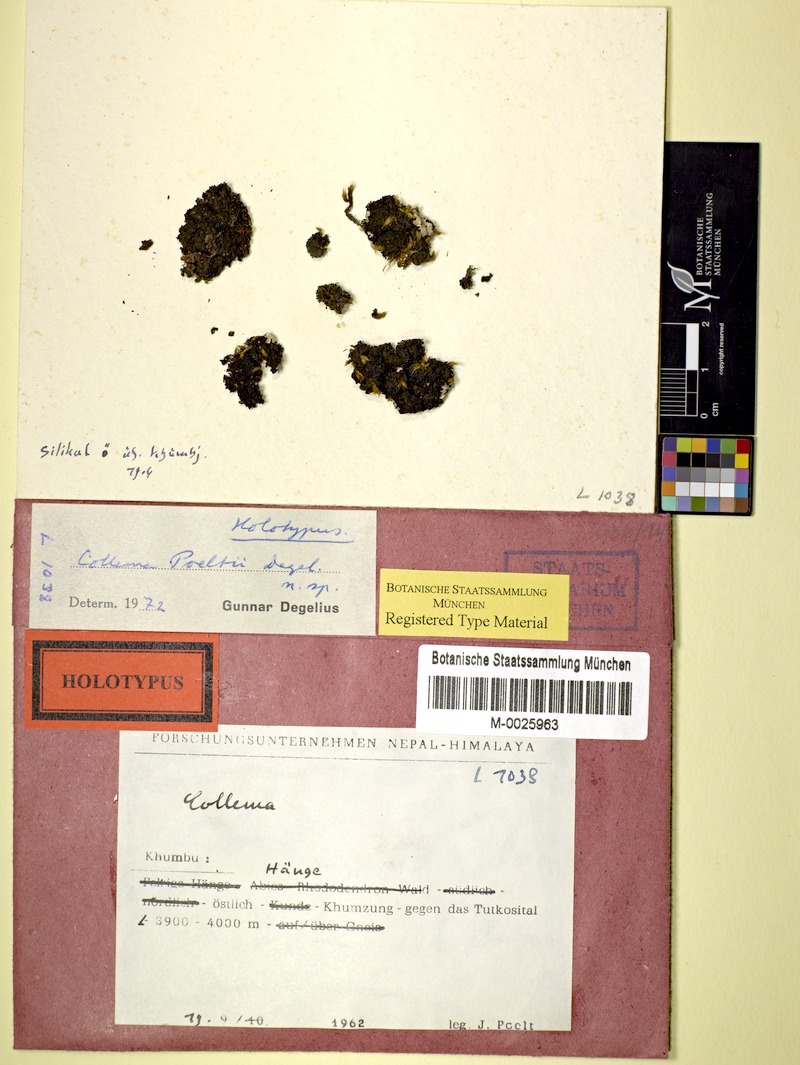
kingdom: Fungi
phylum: Ascomycota
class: Lecanoromycetes
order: Peltigerales
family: Collemataceae
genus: Lathagrium
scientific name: Lathagrium poeltii
